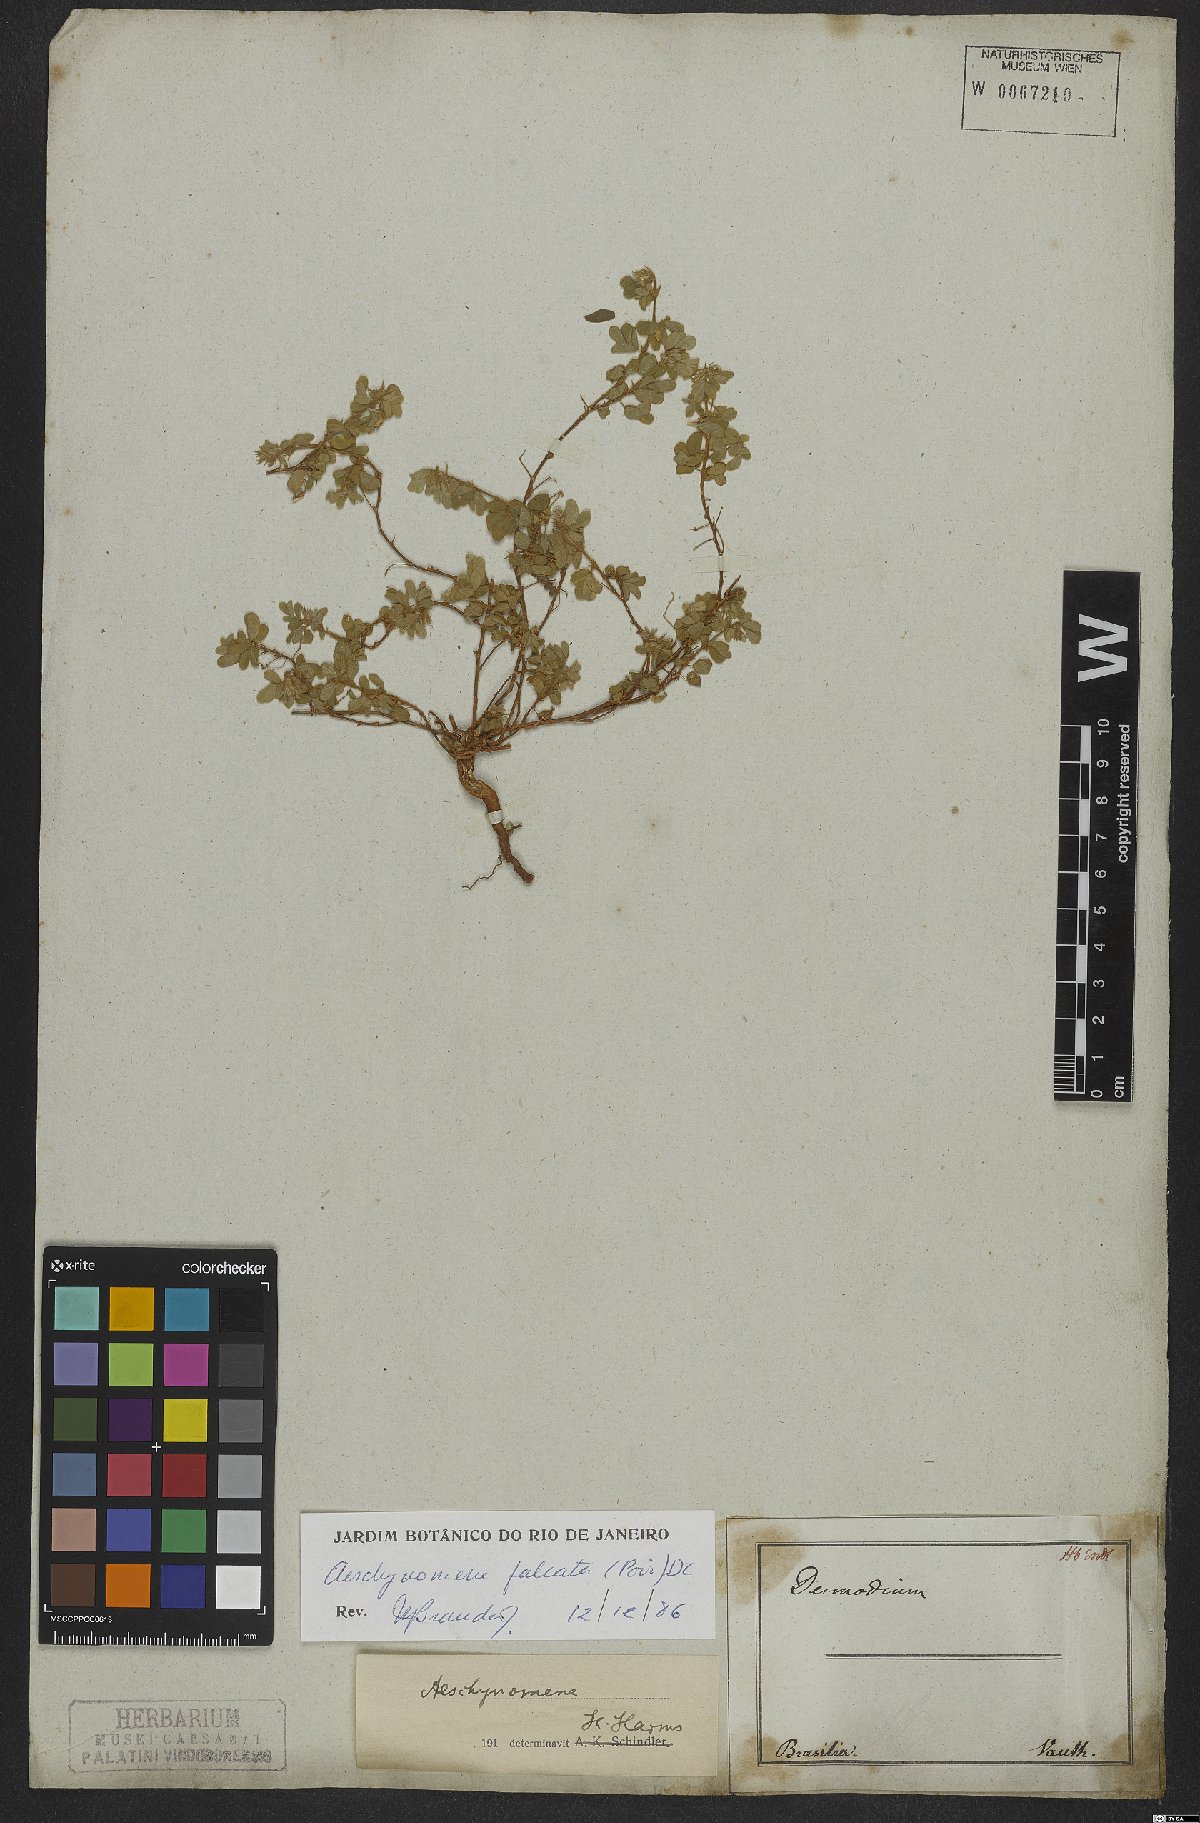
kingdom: Plantae
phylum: Tracheophyta
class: Magnoliopsida
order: Fabales
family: Fabaceae
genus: Ctenodon
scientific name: Ctenodon falcatus
